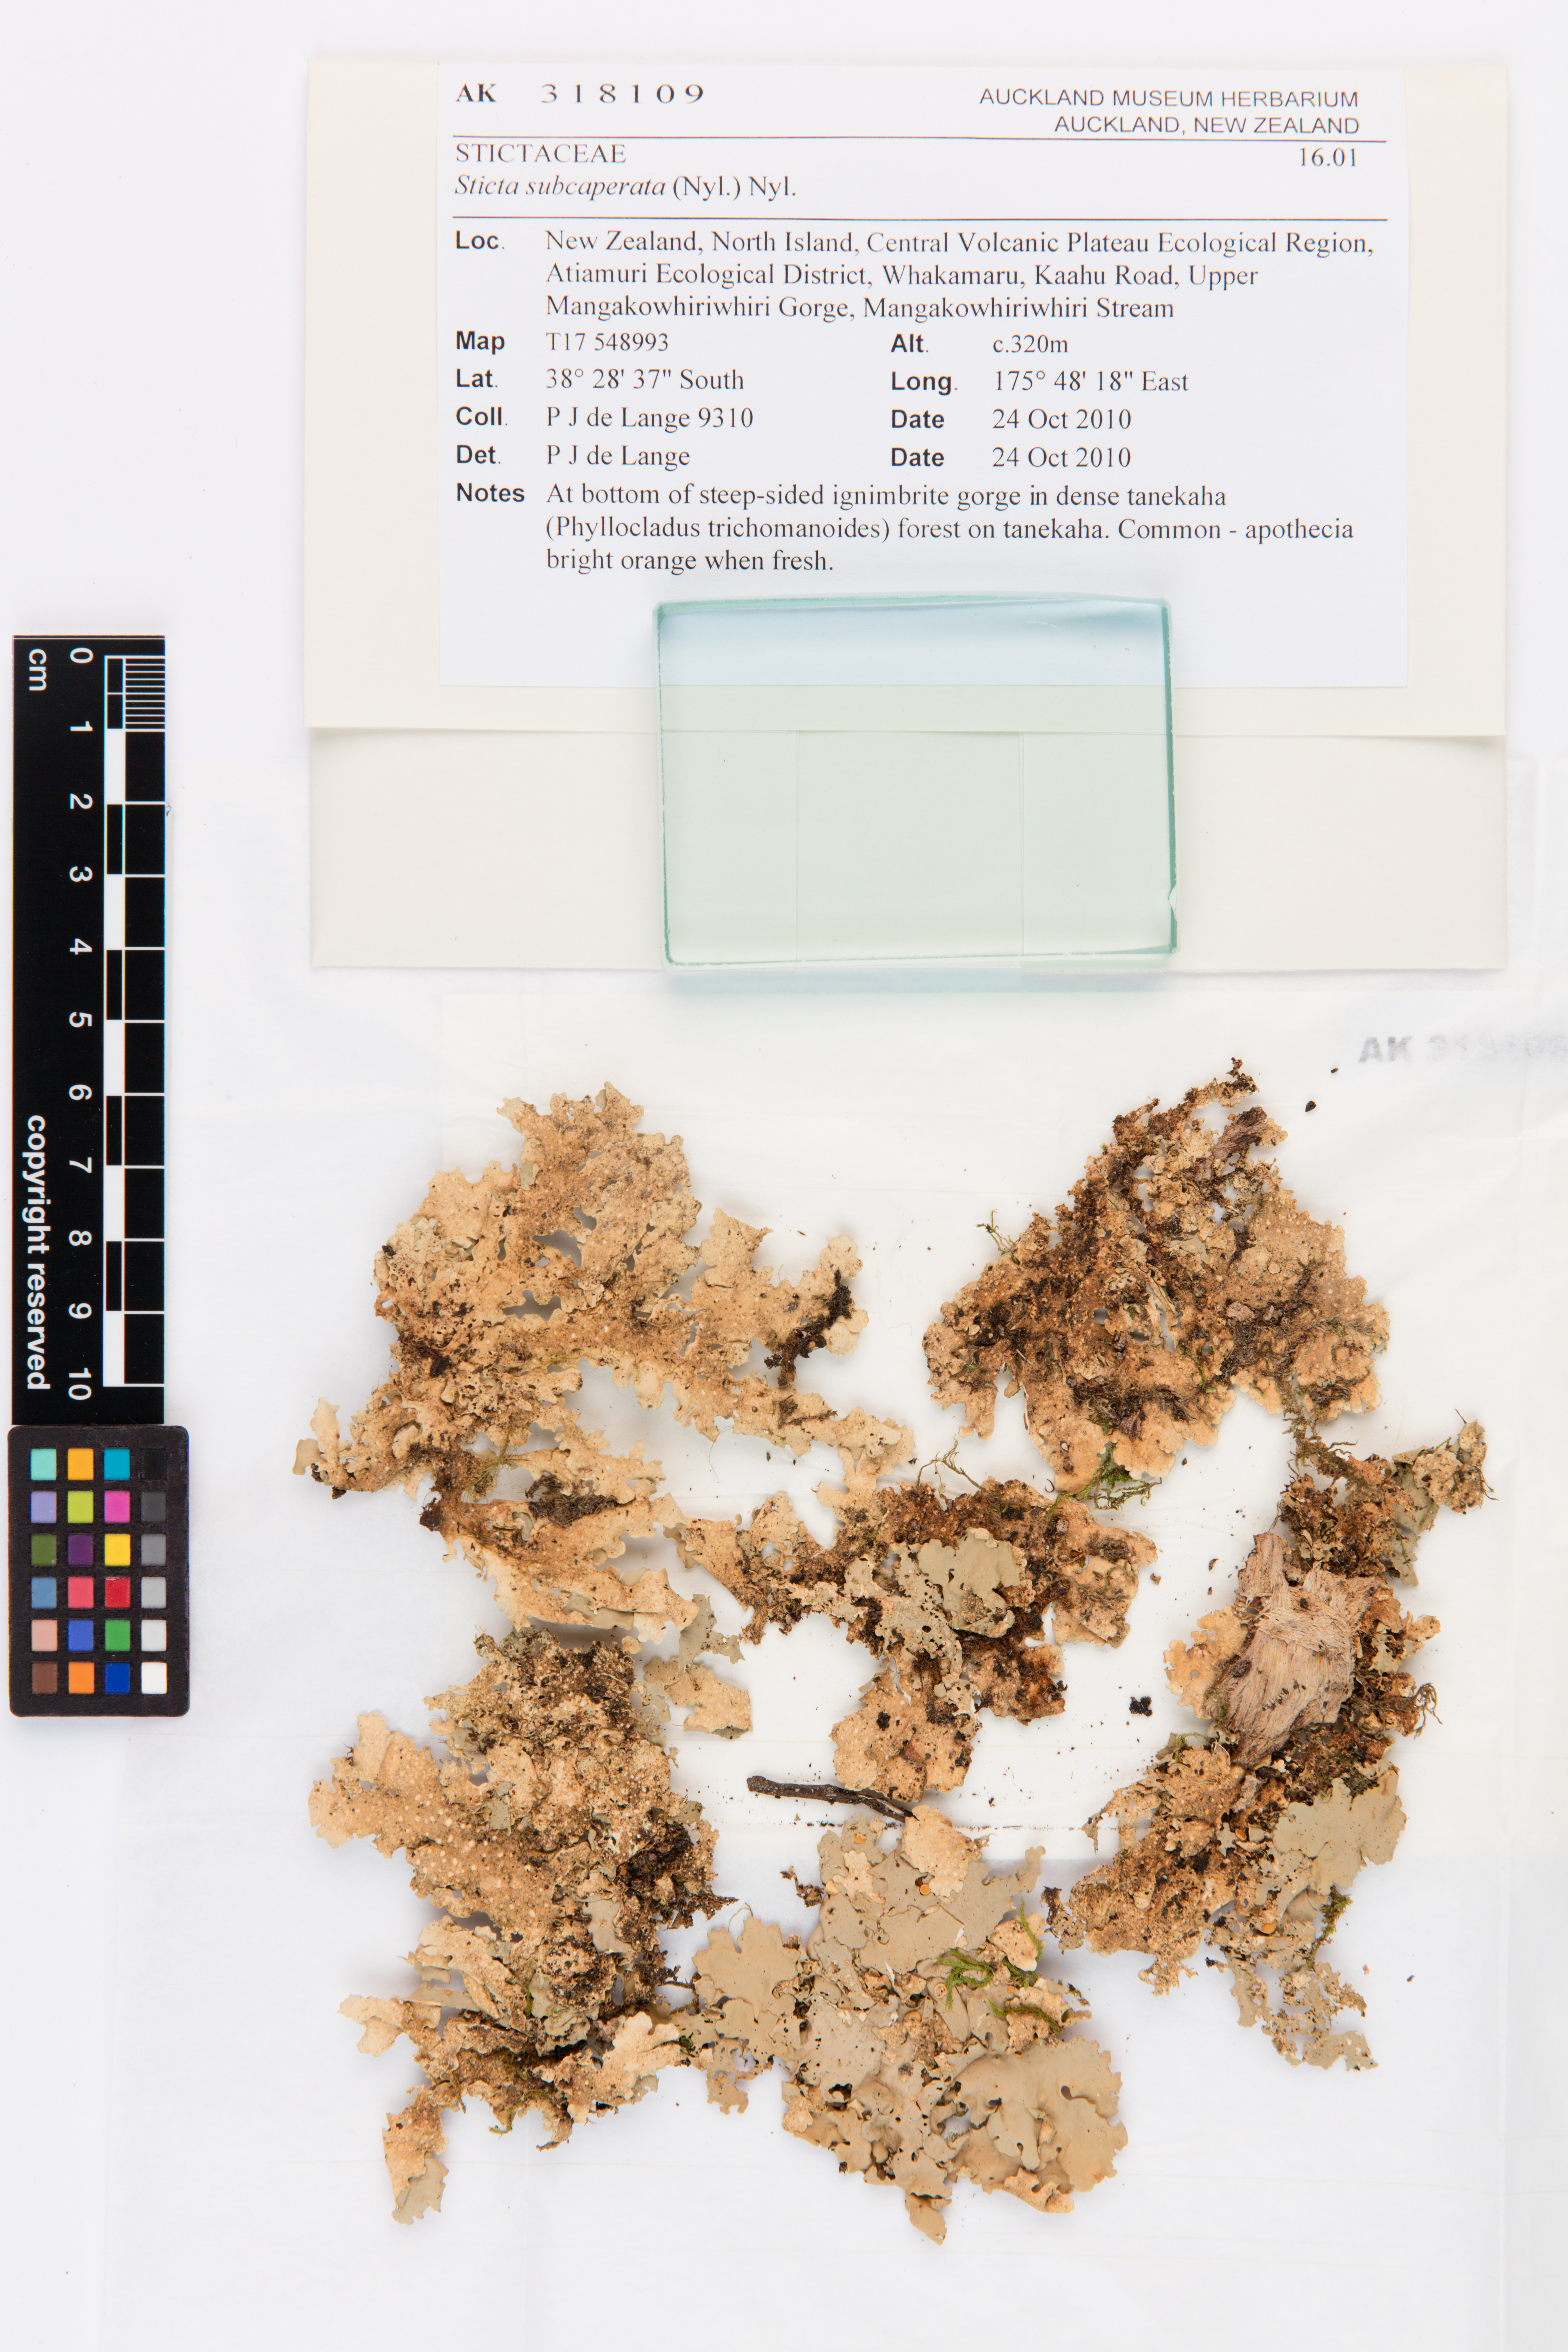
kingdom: Fungi
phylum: Ascomycota
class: Lecanoromycetes
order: Peltigerales
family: Lobariaceae
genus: Sticta
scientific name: Sticta subcaperata
